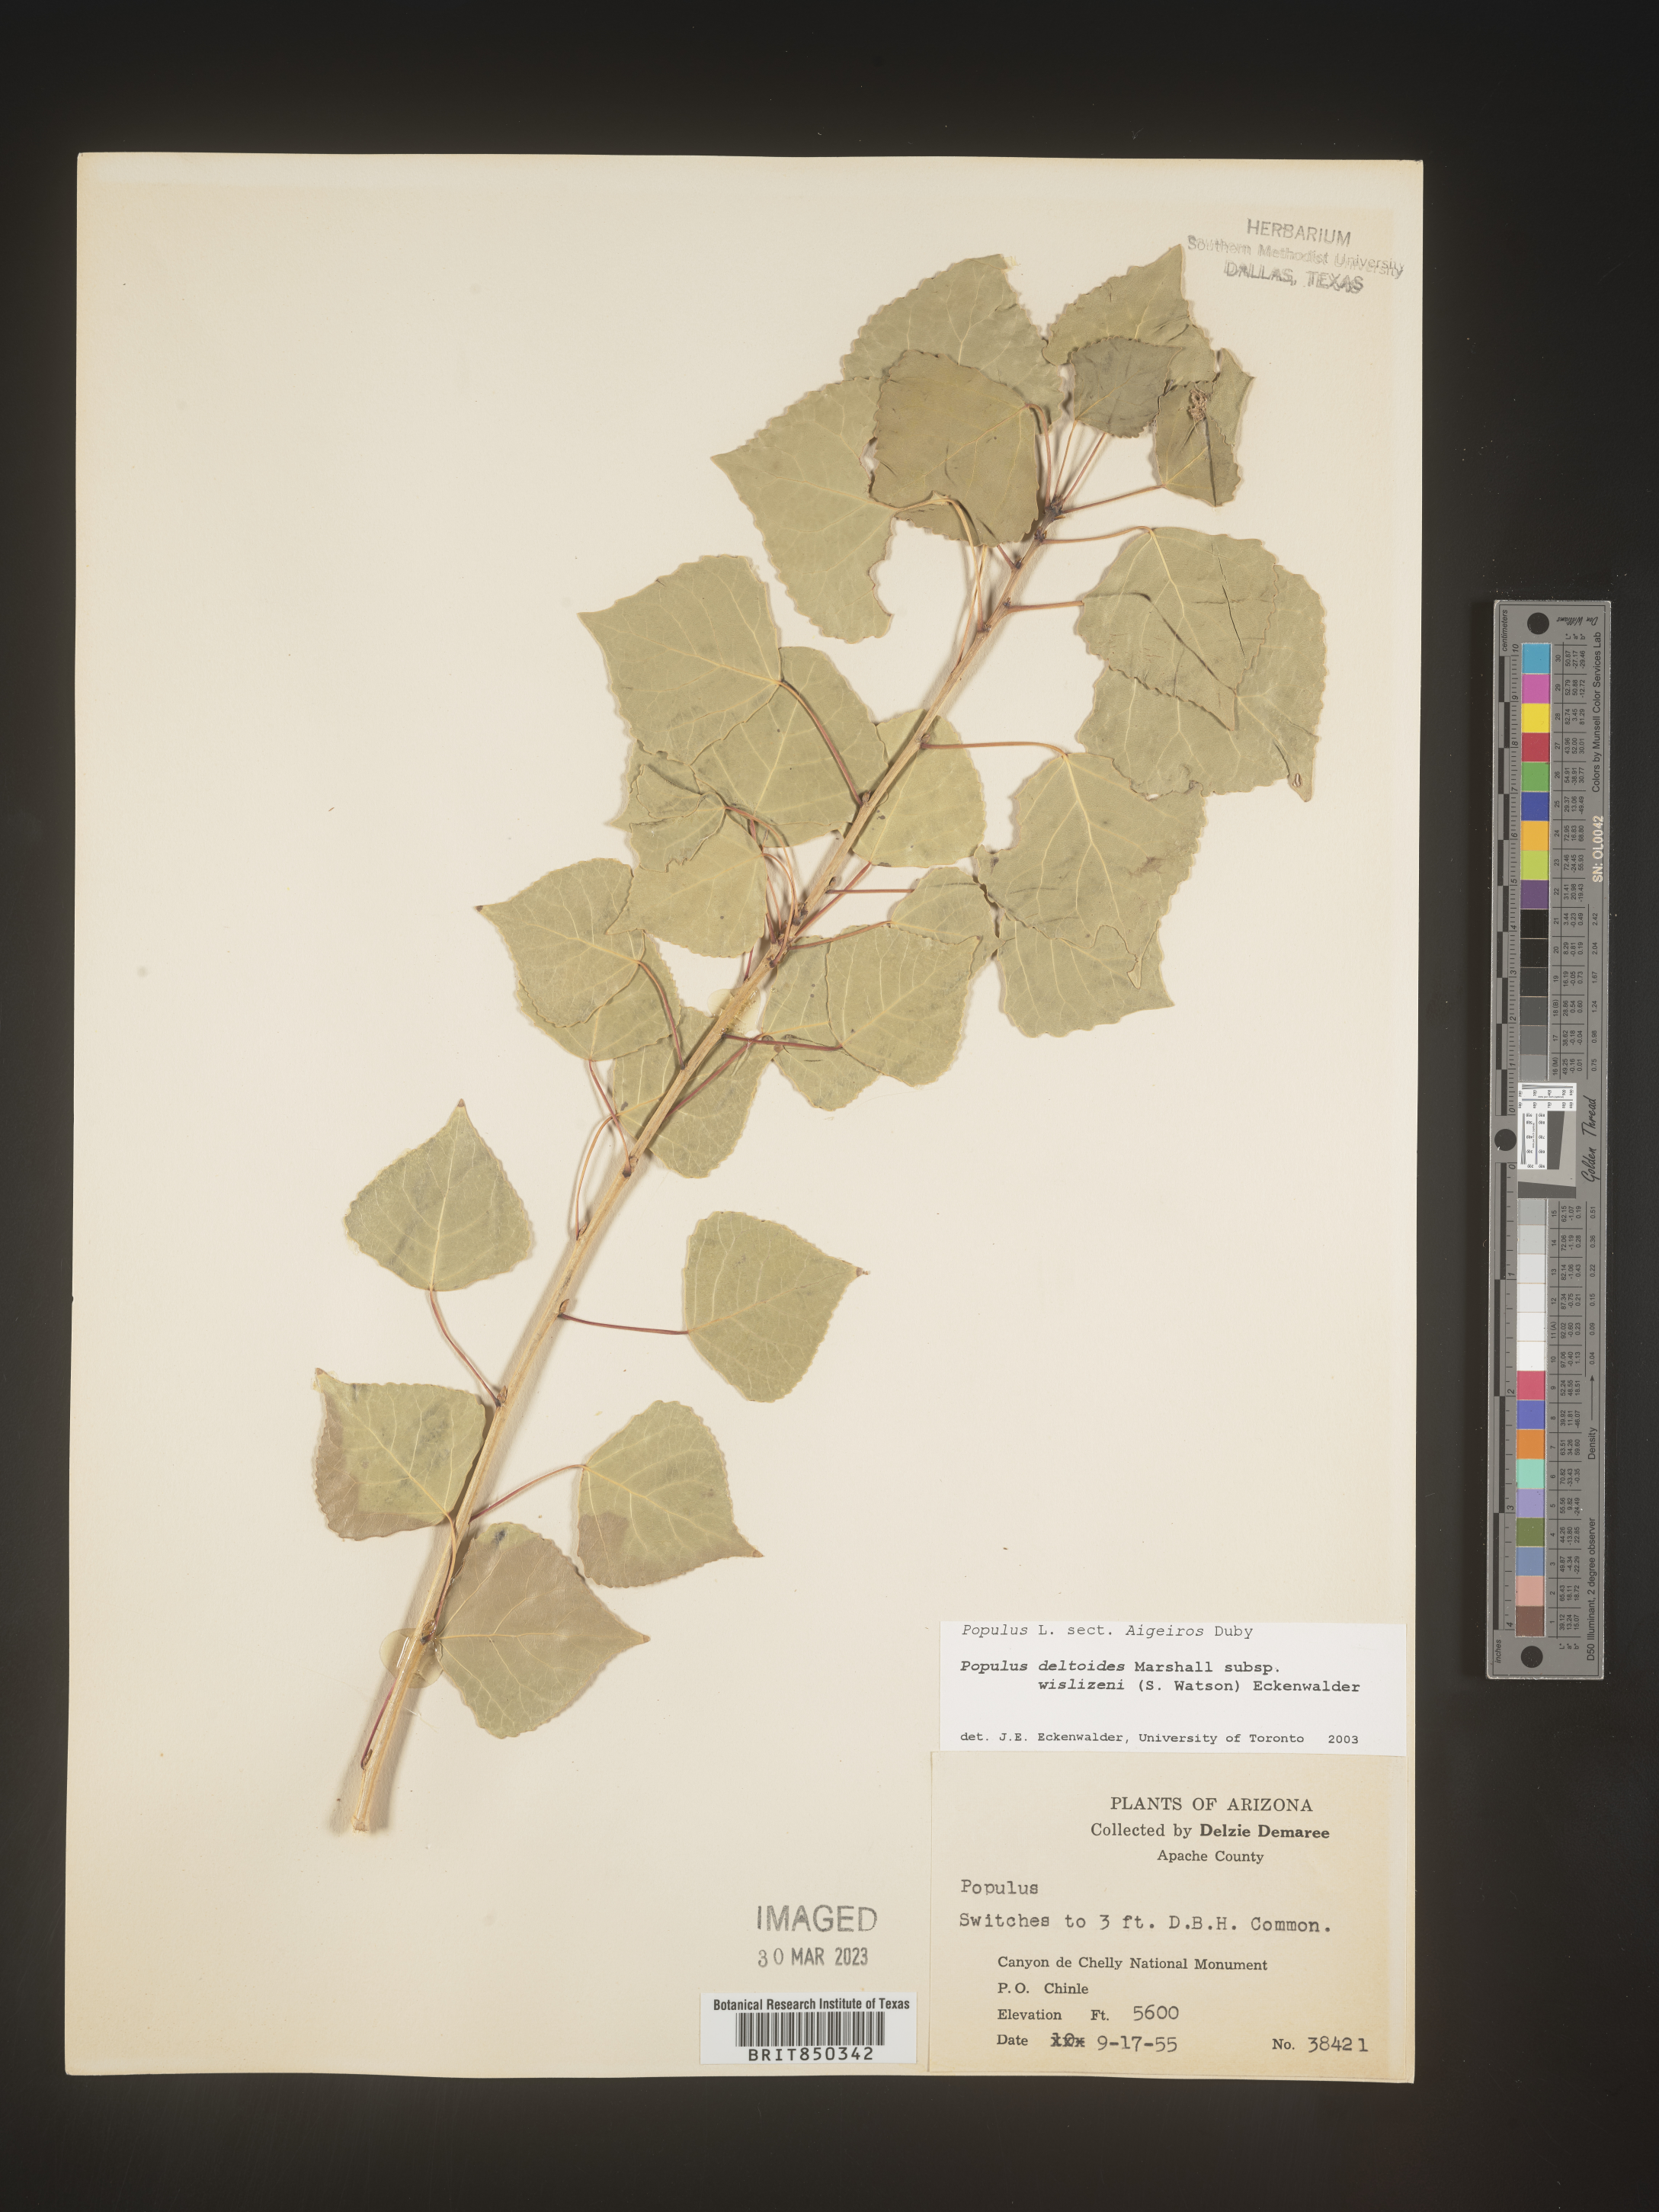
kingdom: Plantae
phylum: Tracheophyta
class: Magnoliopsida
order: Malpighiales
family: Salicaceae
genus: Populus
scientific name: Populus deltoides
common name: Eastern cottonwood
